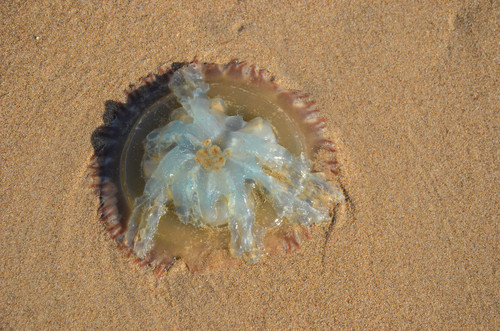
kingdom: Animalia
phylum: Cnidaria
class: Scyphozoa
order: Rhizostomeae
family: Catostylidae
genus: Catostylus
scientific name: Catostylus tagi
